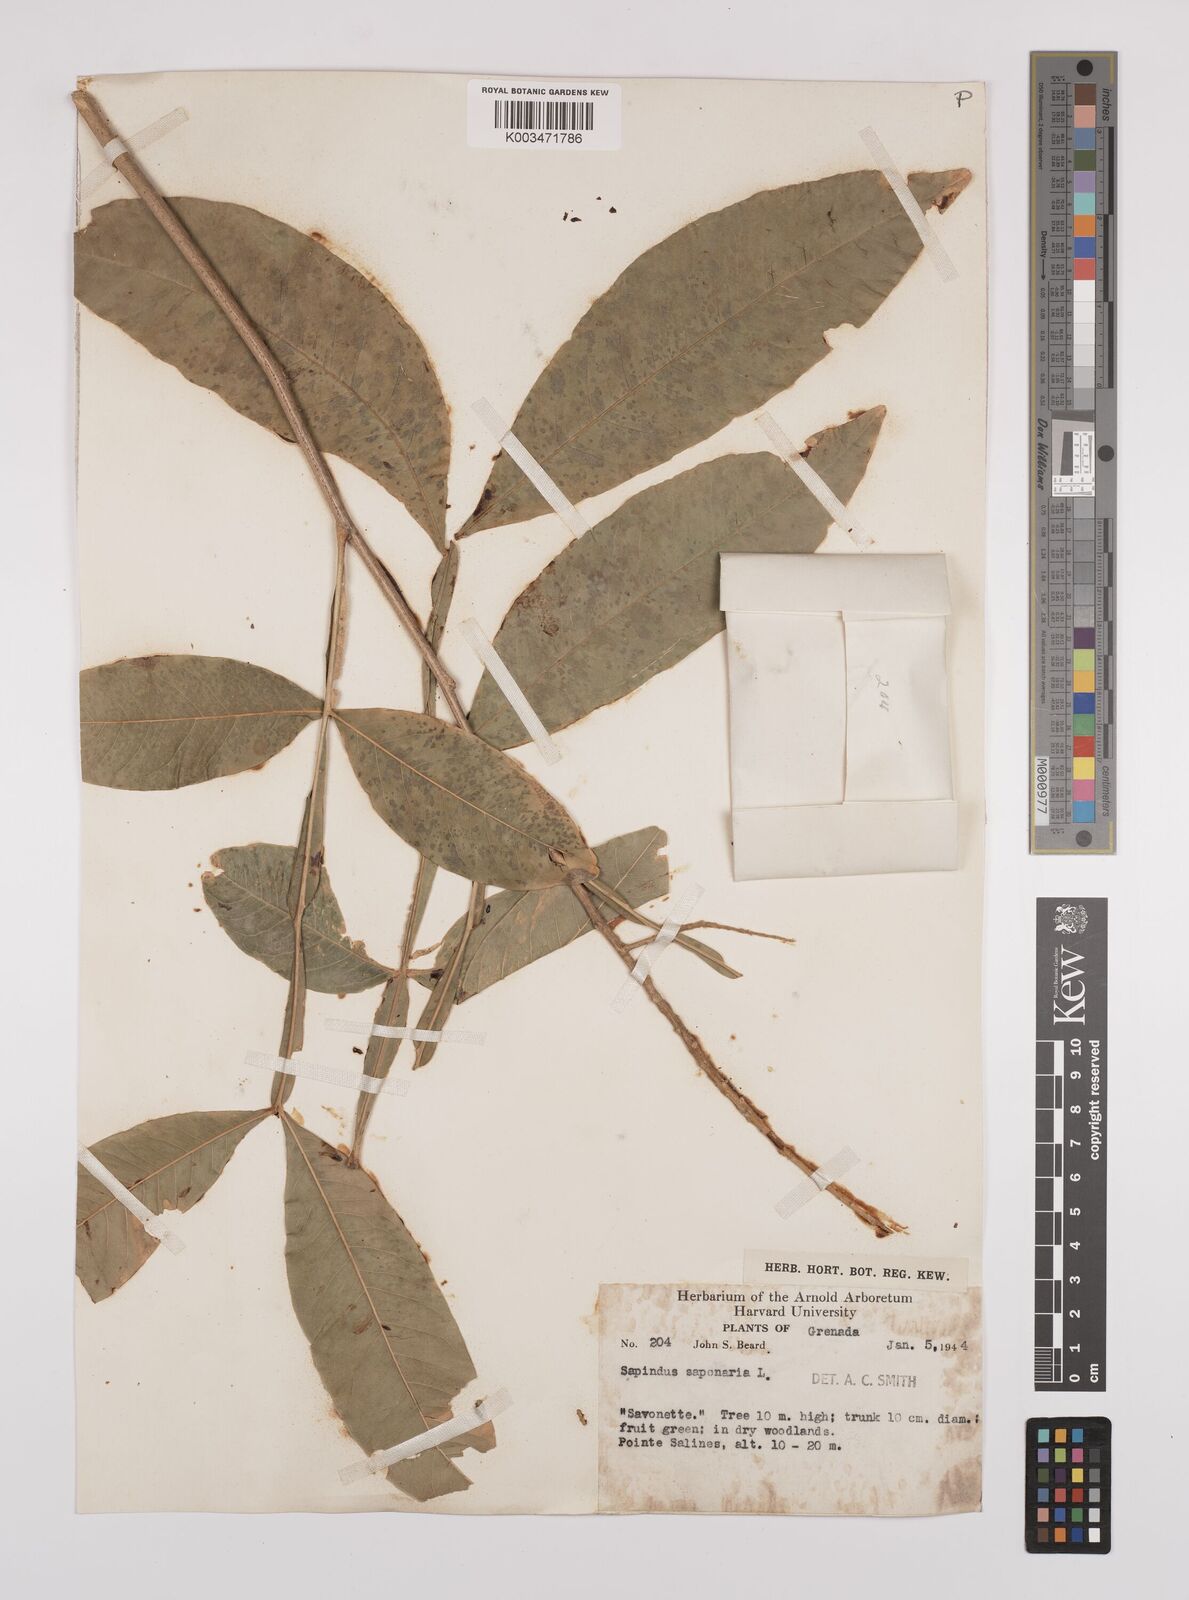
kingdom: Plantae
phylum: Tracheophyta
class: Magnoliopsida
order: Sapindales
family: Sapindaceae
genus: Sapindus
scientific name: Sapindus saponaria
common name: Wingleaf soapberry
